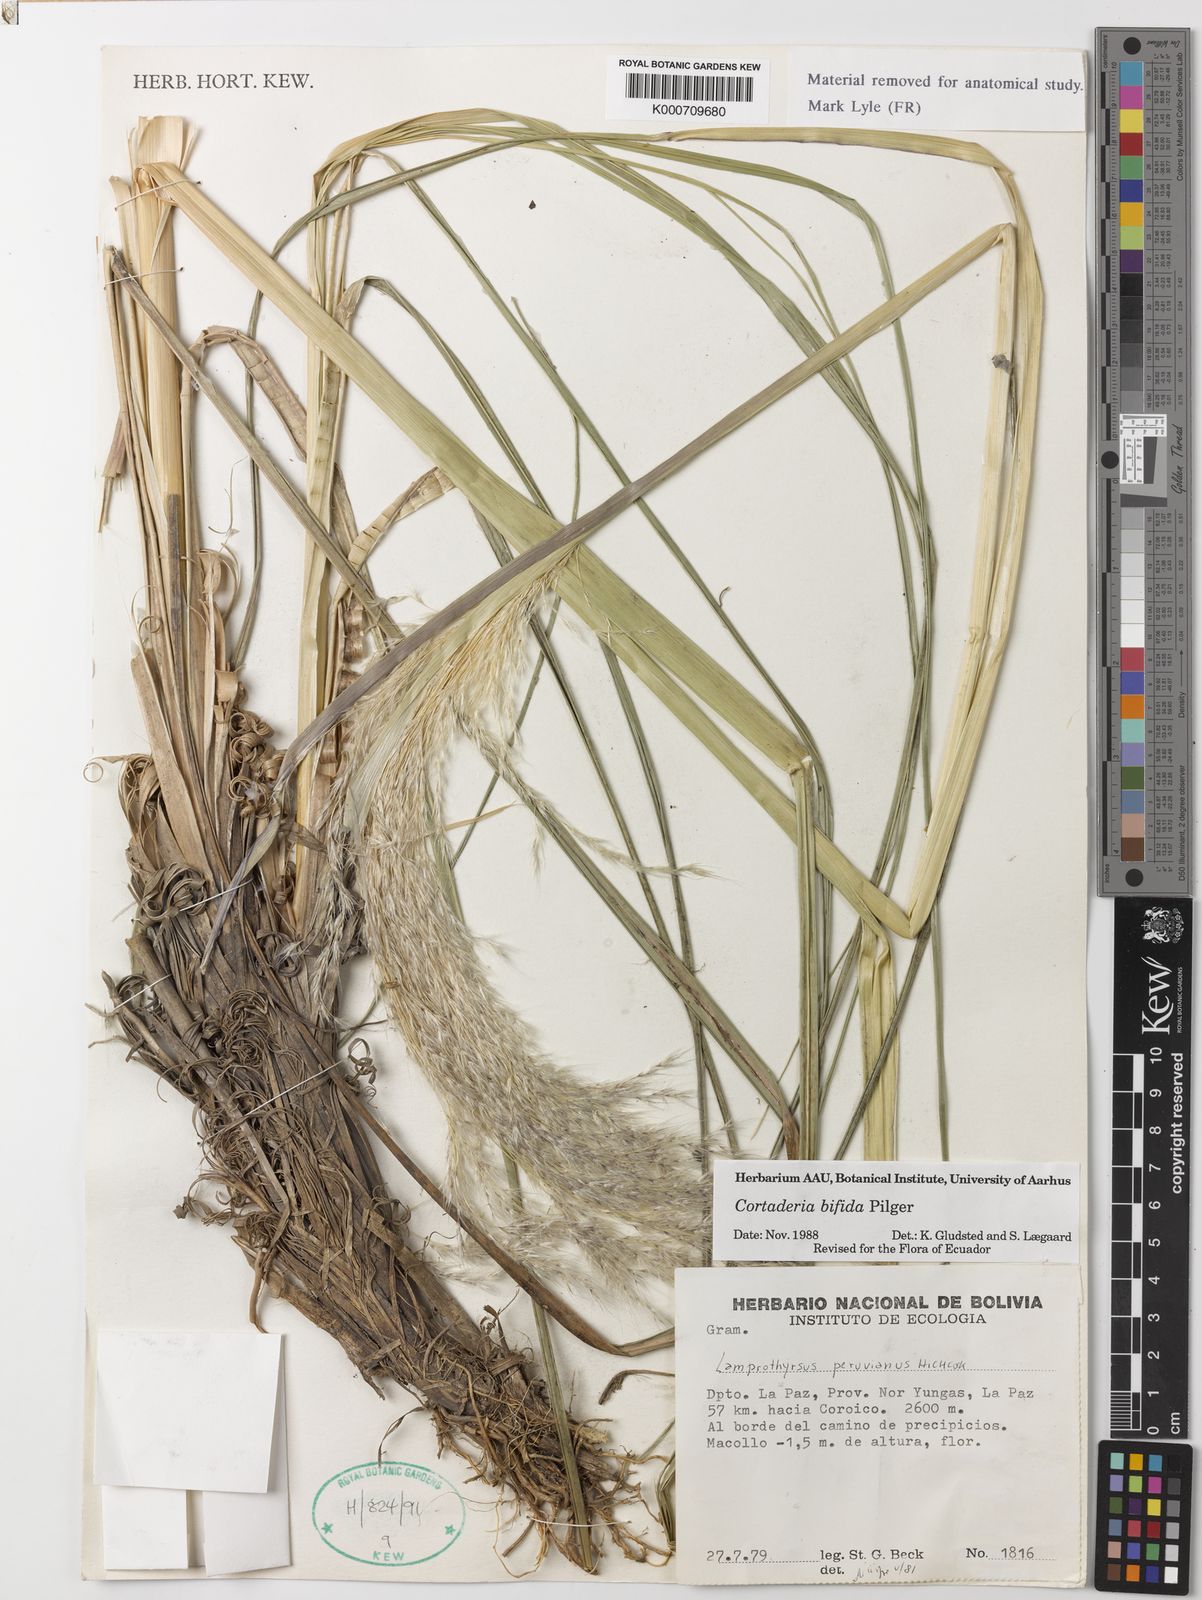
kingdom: Plantae
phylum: Tracheophyta
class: Liliopsida
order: Poales
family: Poaceae
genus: Cortaderia
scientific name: Cortaderia bifida
